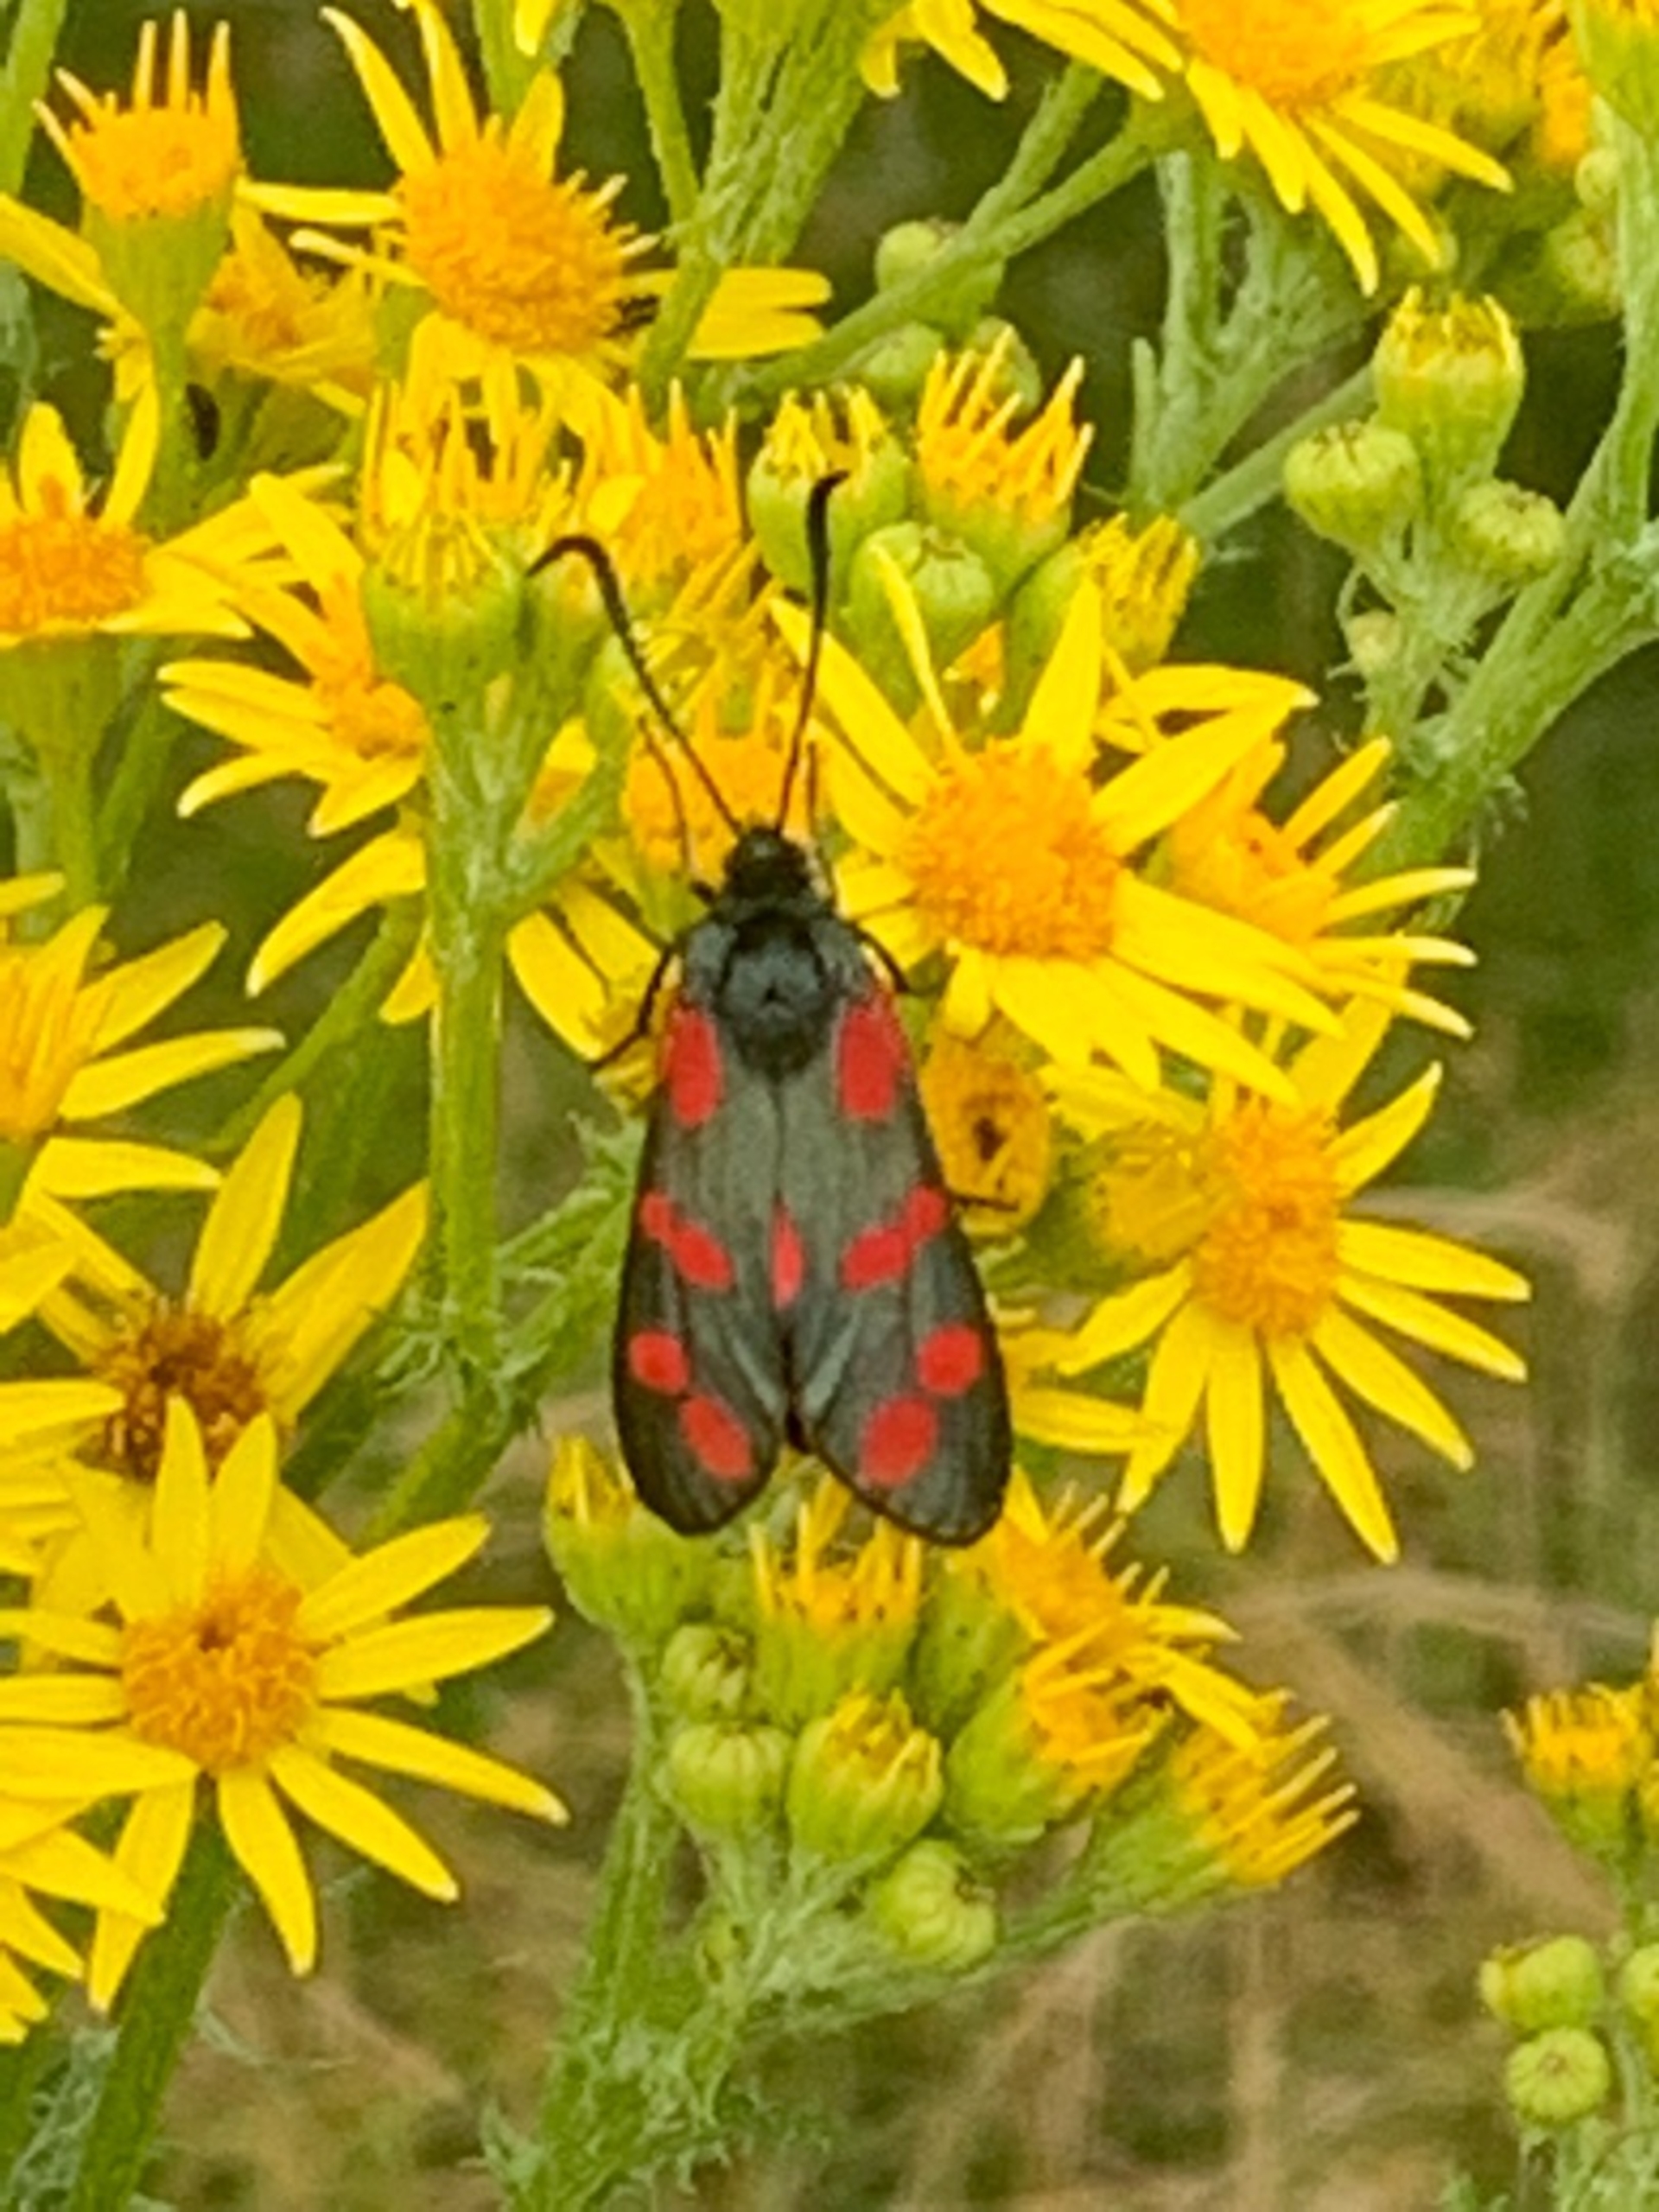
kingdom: Animalia
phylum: Arthropoda
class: Insecta
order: Lepidoptera
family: Zygaenidae
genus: Zygaena
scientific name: Zygaena filipendulae
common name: Seksplettet køllesværmer
